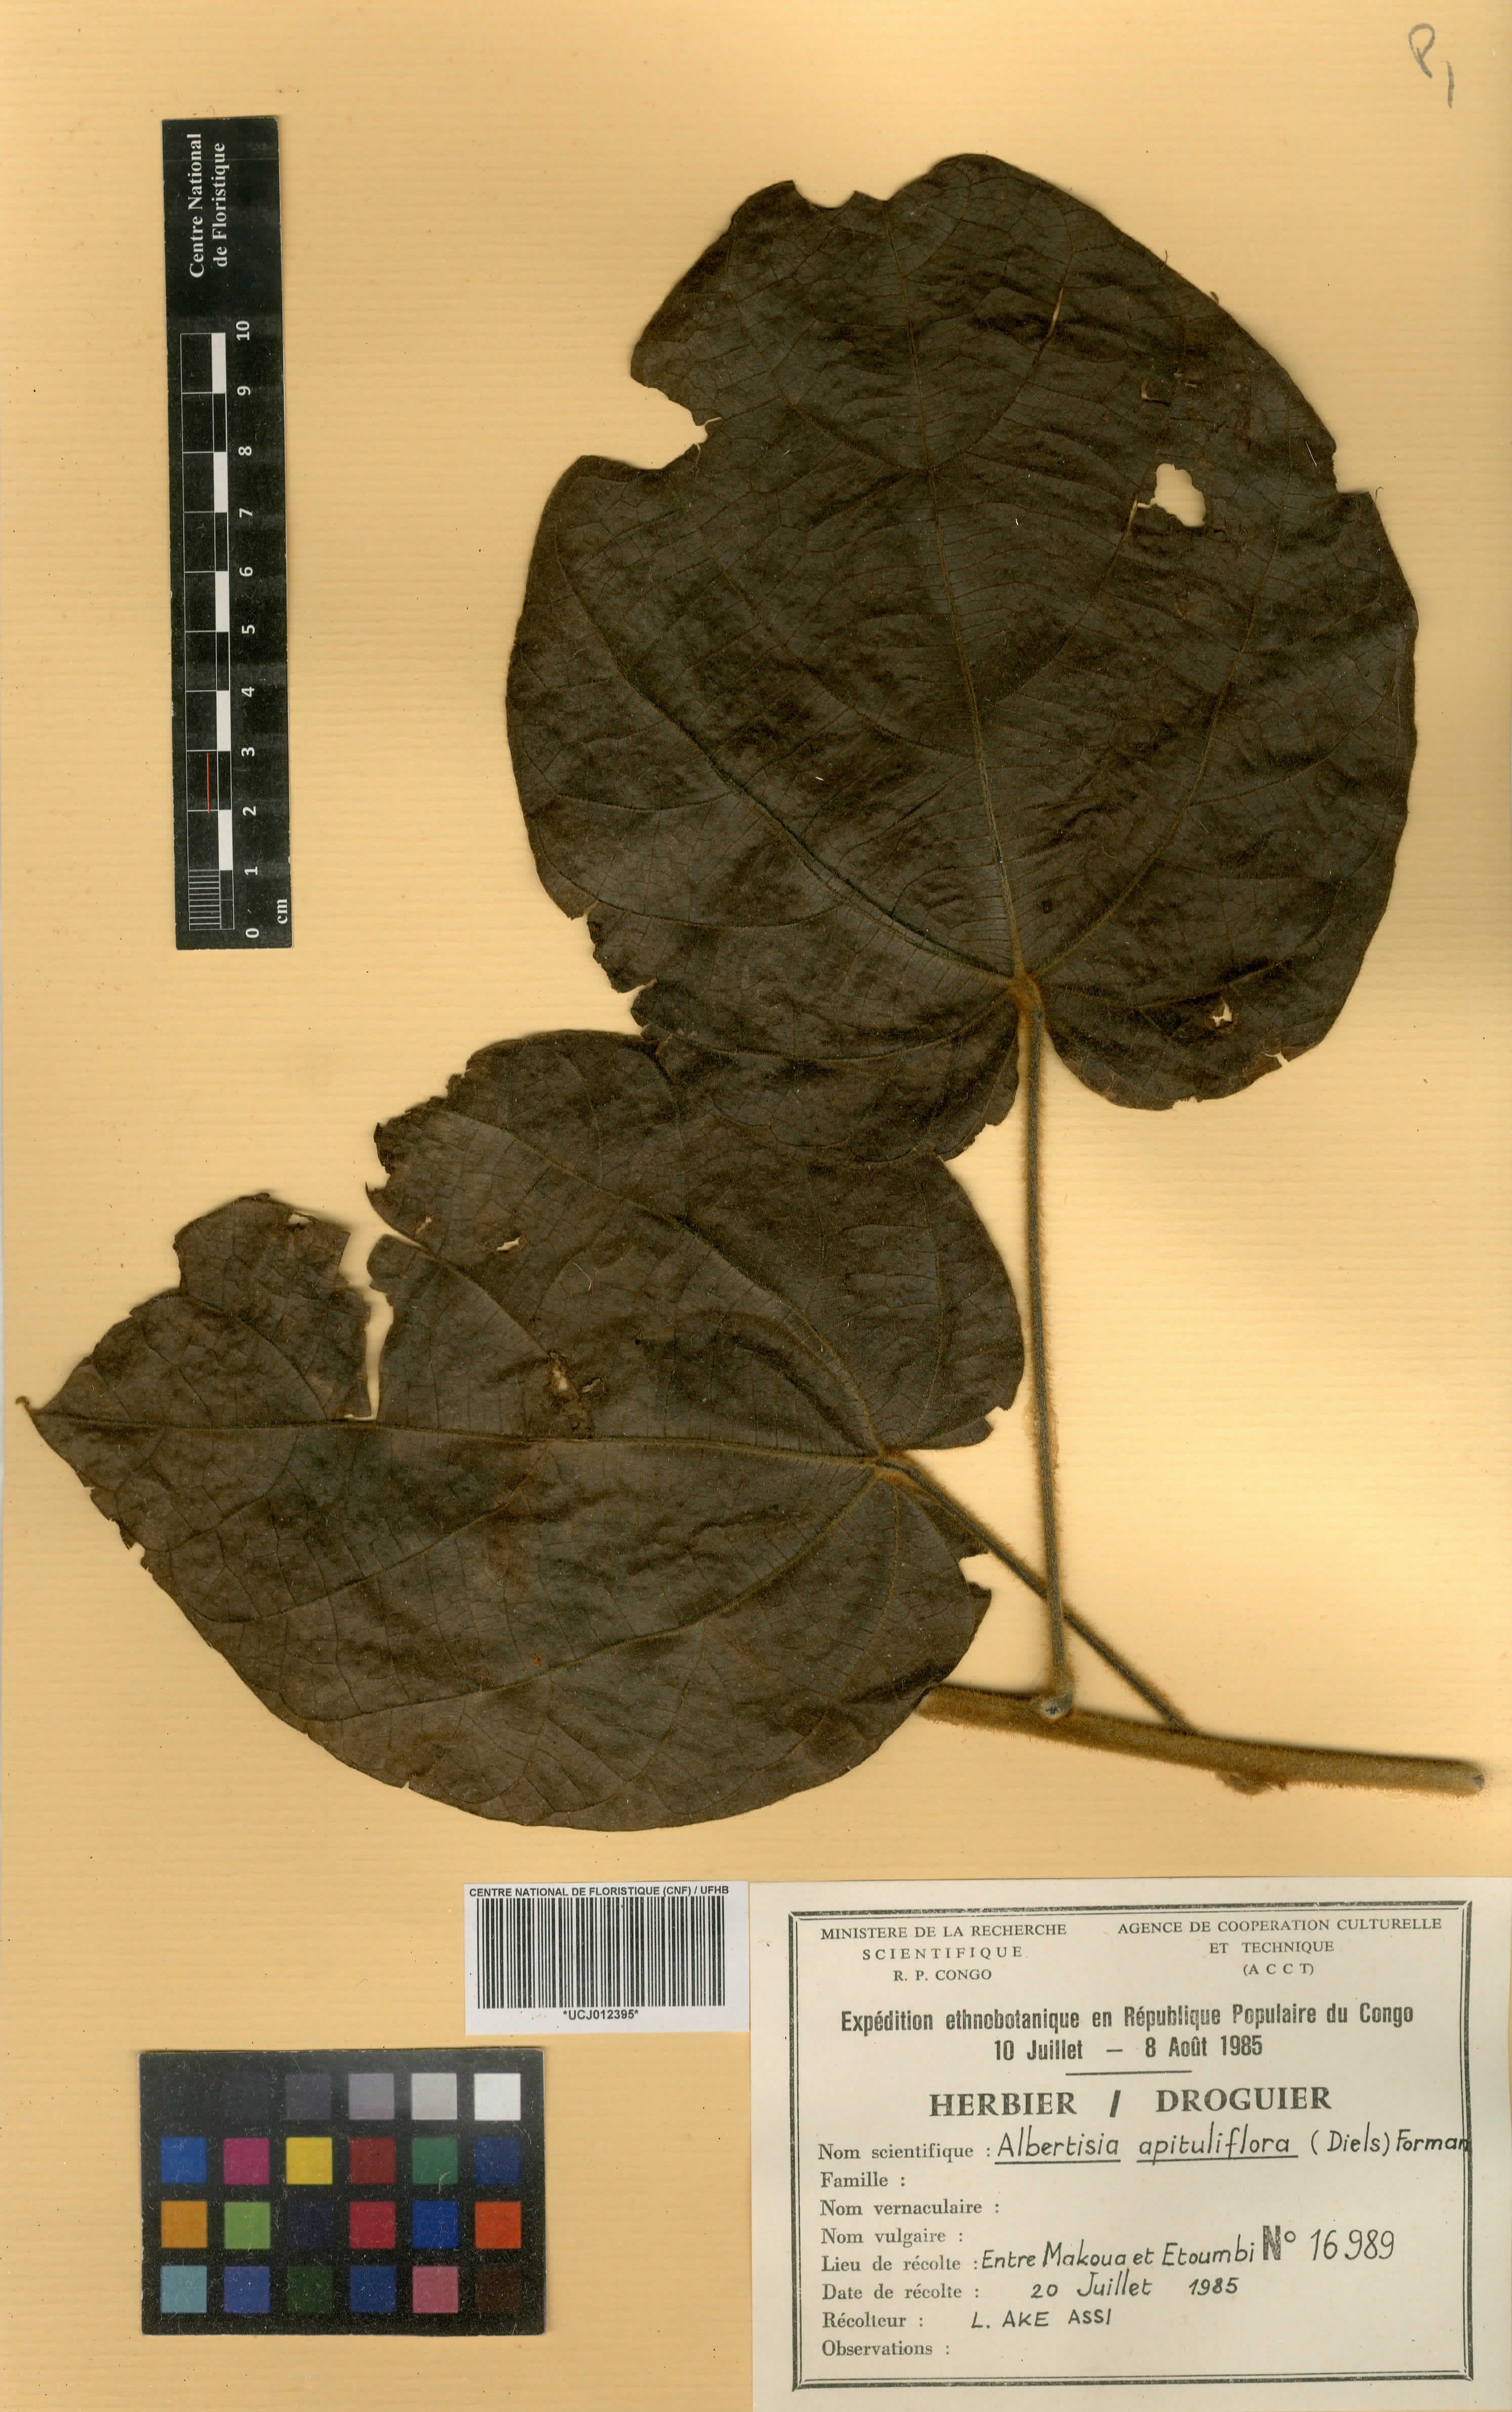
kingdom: Plantae
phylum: Tracheophyta
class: Magnoliopsida
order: Ranunculales
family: Menispermaceae
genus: Albertisia
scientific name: Albertisia capituliflora
